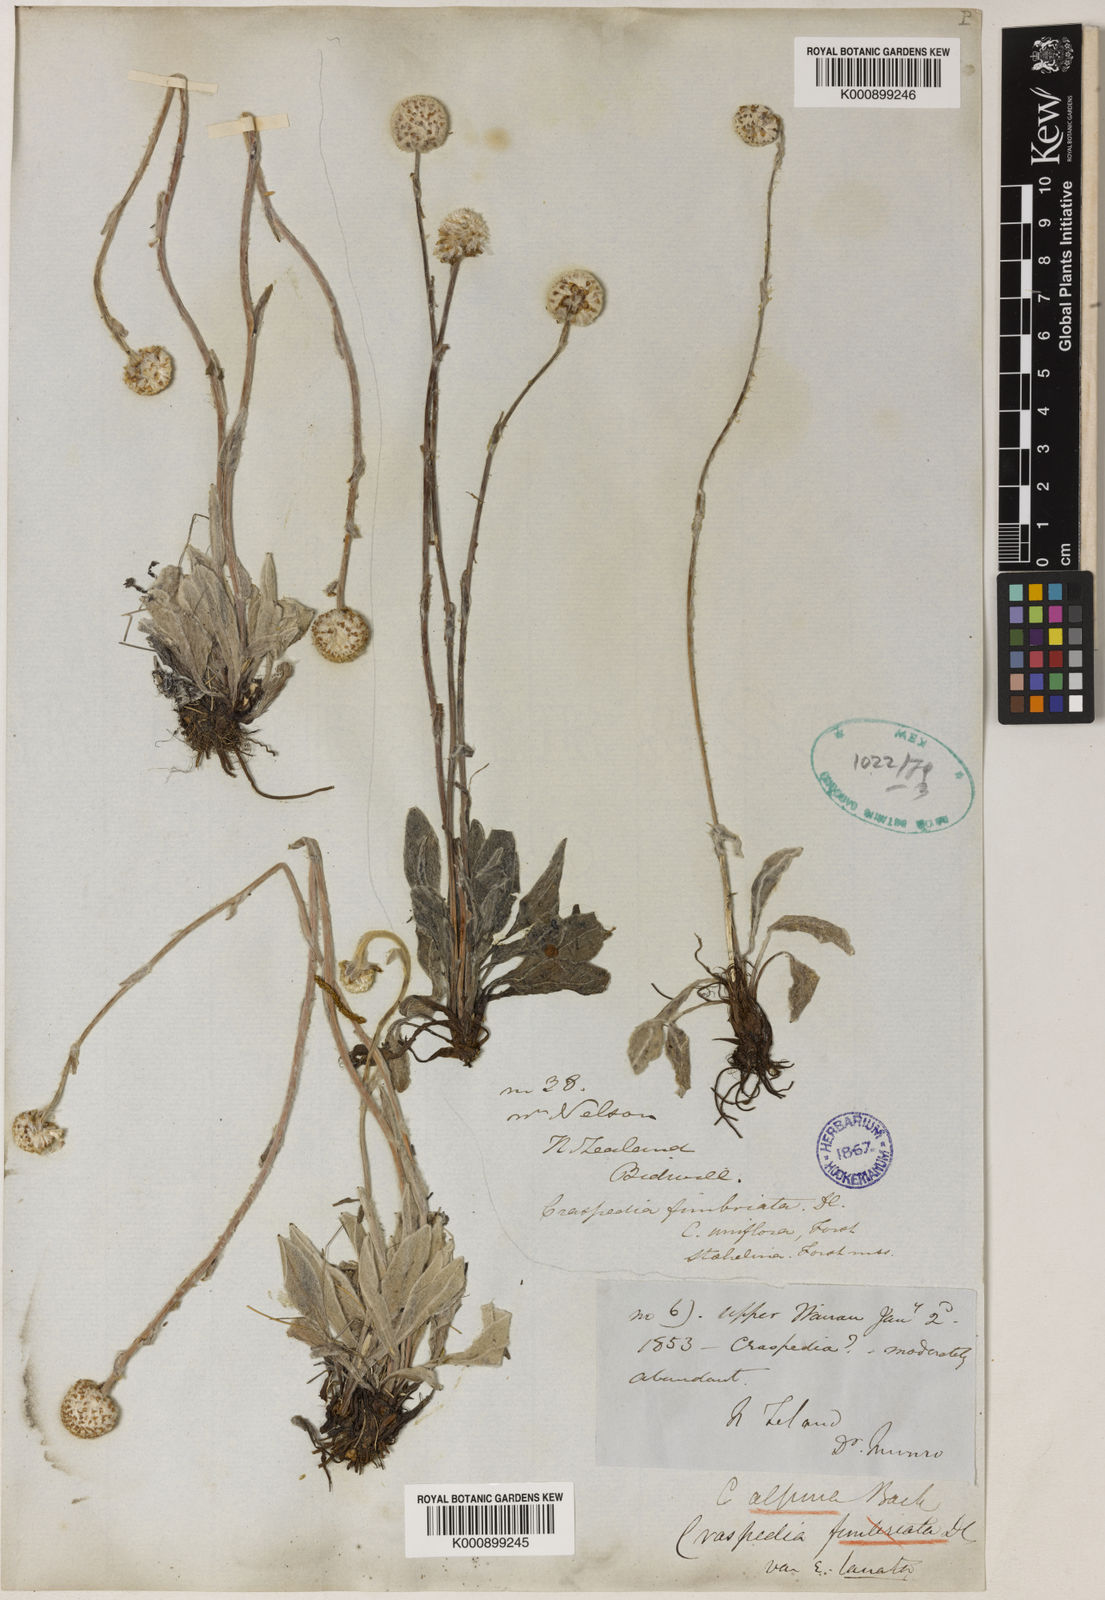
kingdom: Plantae
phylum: Tracheophyta
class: Magnoliopsida
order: Asterales
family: Asteraceae
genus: Craspedia
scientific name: Craspedia uniflora
